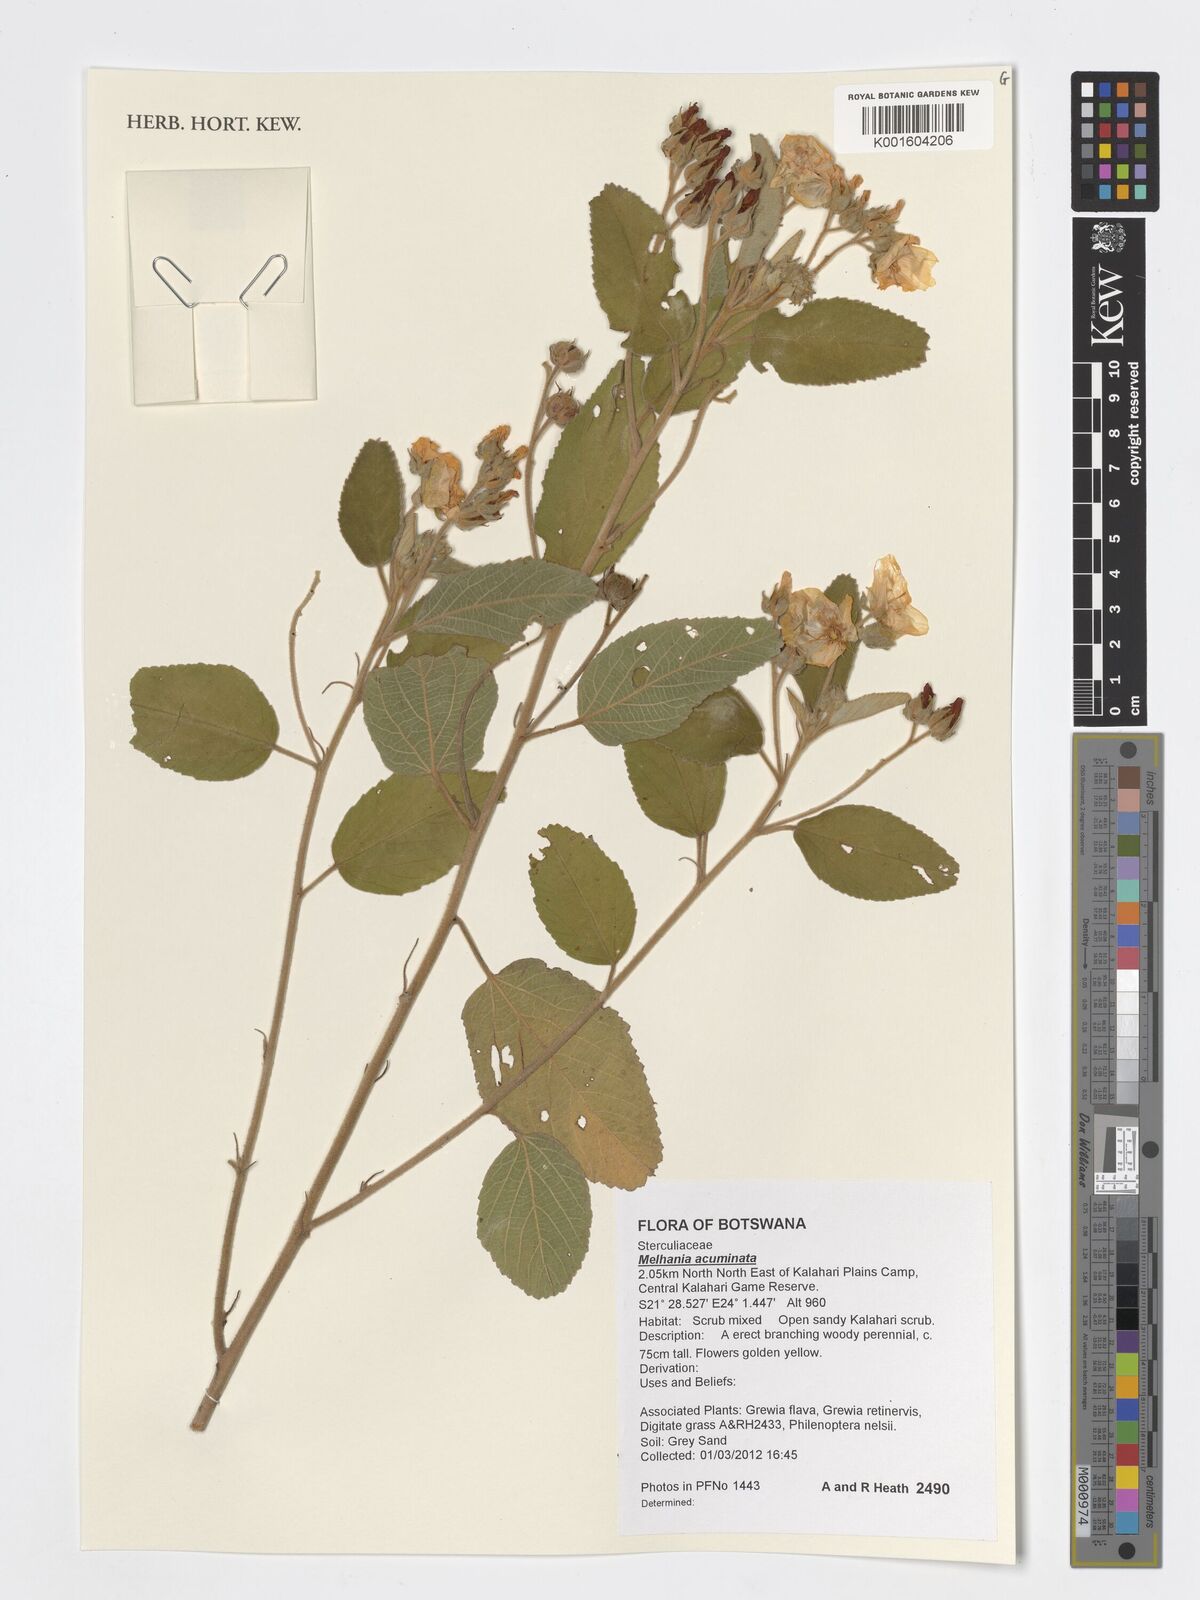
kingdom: Plantae
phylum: Tracheophyta
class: Magnoliopsida
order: Malvales
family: Malvaceae
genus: Melhania
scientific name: Melhania acuminata
